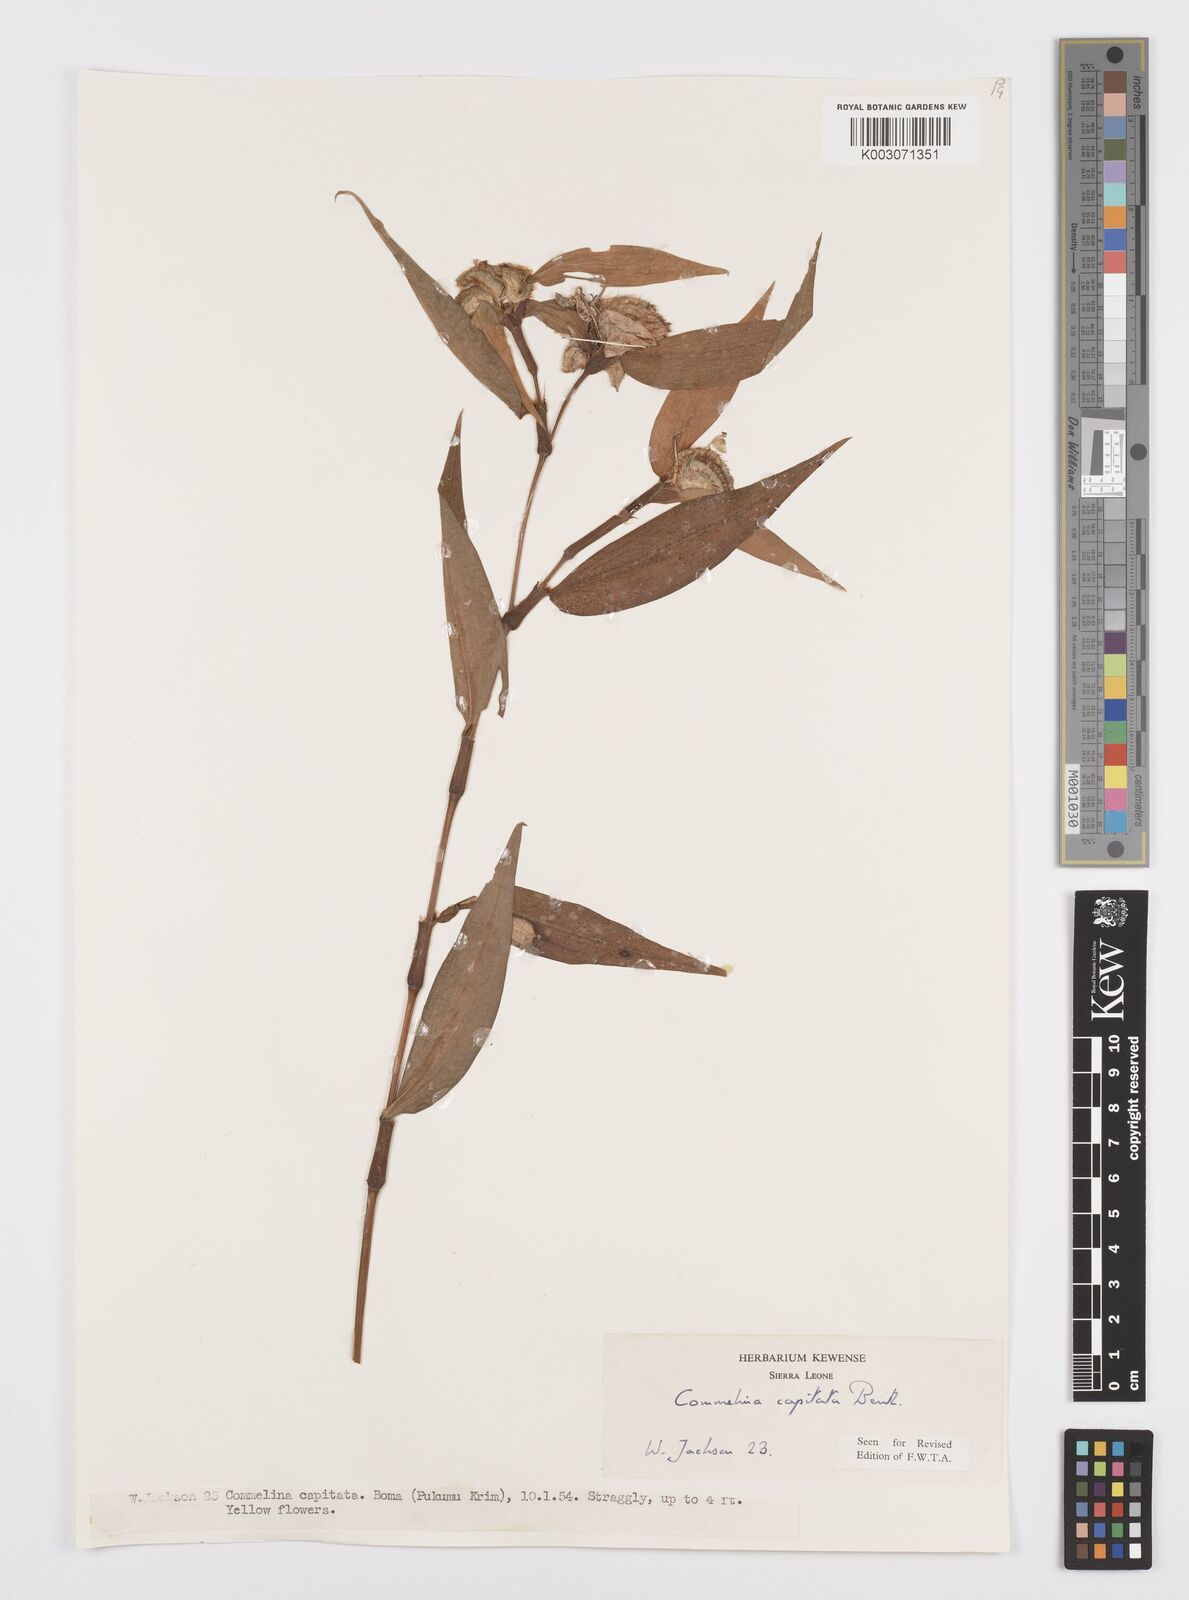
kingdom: Plantae
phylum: Tracheophyta
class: Liliopsida
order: Commelinales
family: Commelinaceae
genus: Commelina
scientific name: Commelina capitata
